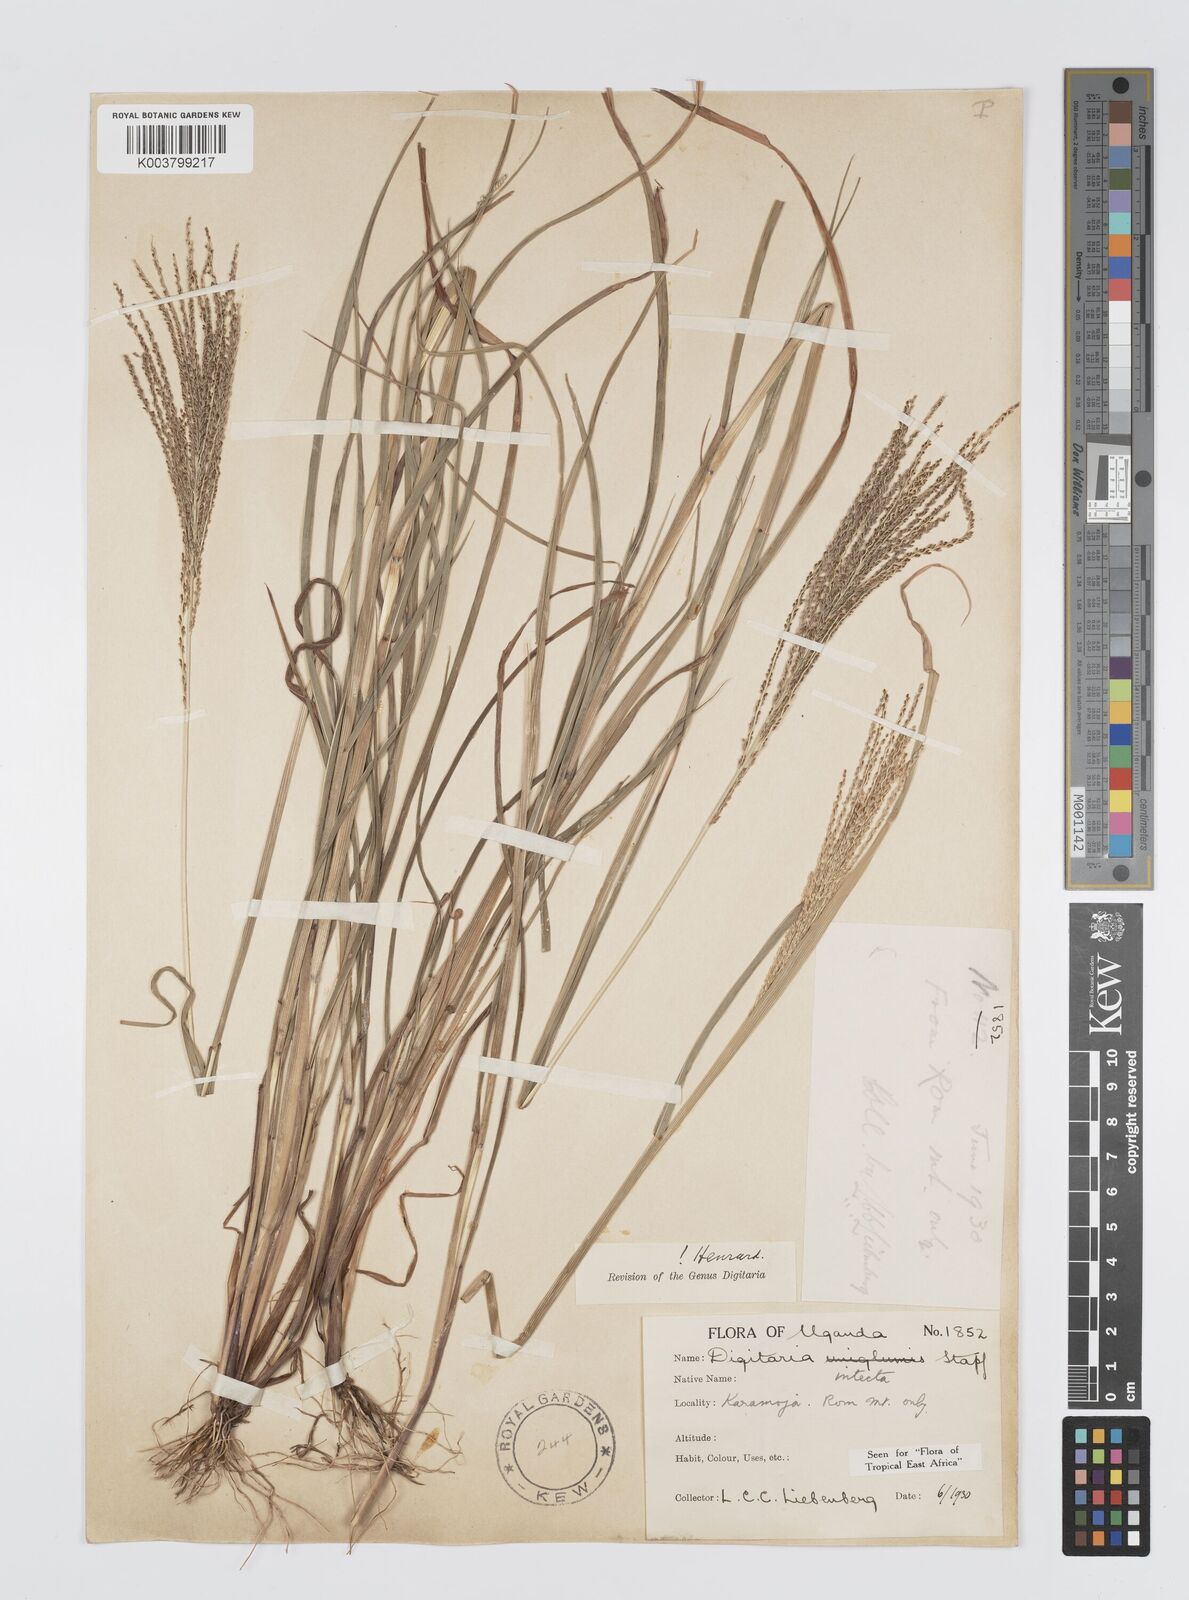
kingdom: Plantae
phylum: Tracheophyta
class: Liliopsida
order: Poales
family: Poaceae
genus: Digitaria
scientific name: Digitaria intecta
